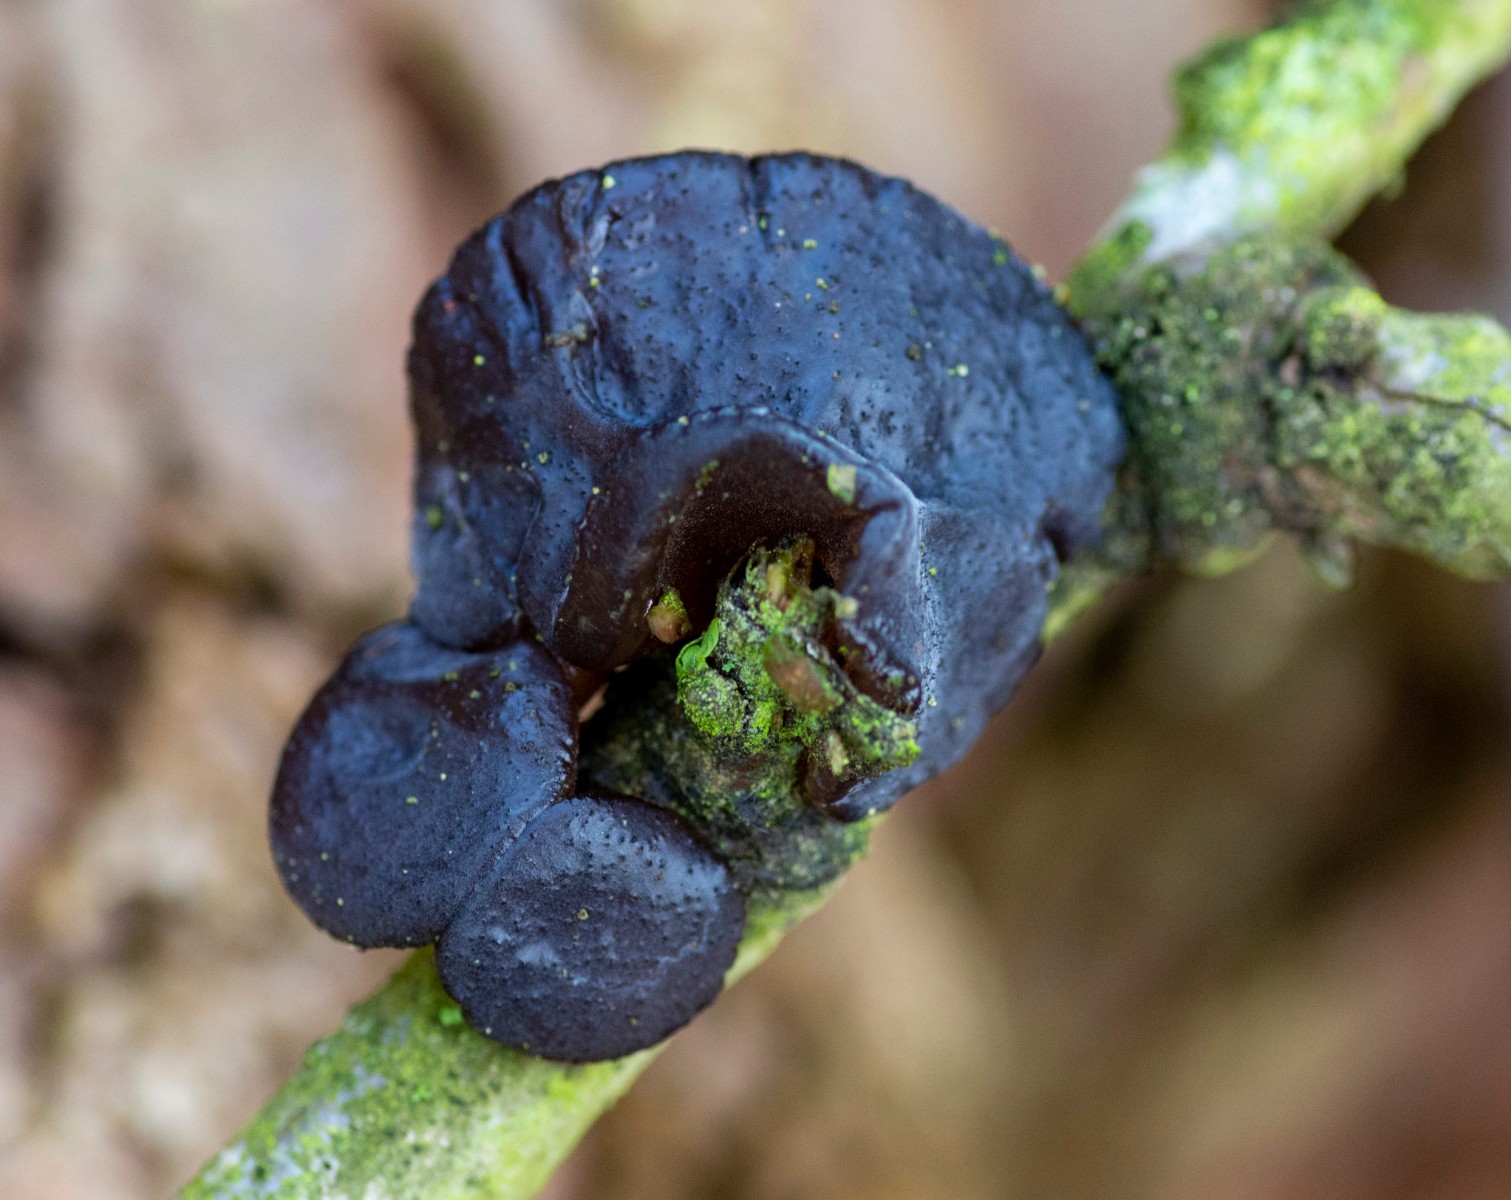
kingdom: Fungi
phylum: Basidiomycota
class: Agaricomycetes
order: Auriculariales
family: Auriculariaceae
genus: Exidia
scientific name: Exidia glandulosa
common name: ege-bævretop
